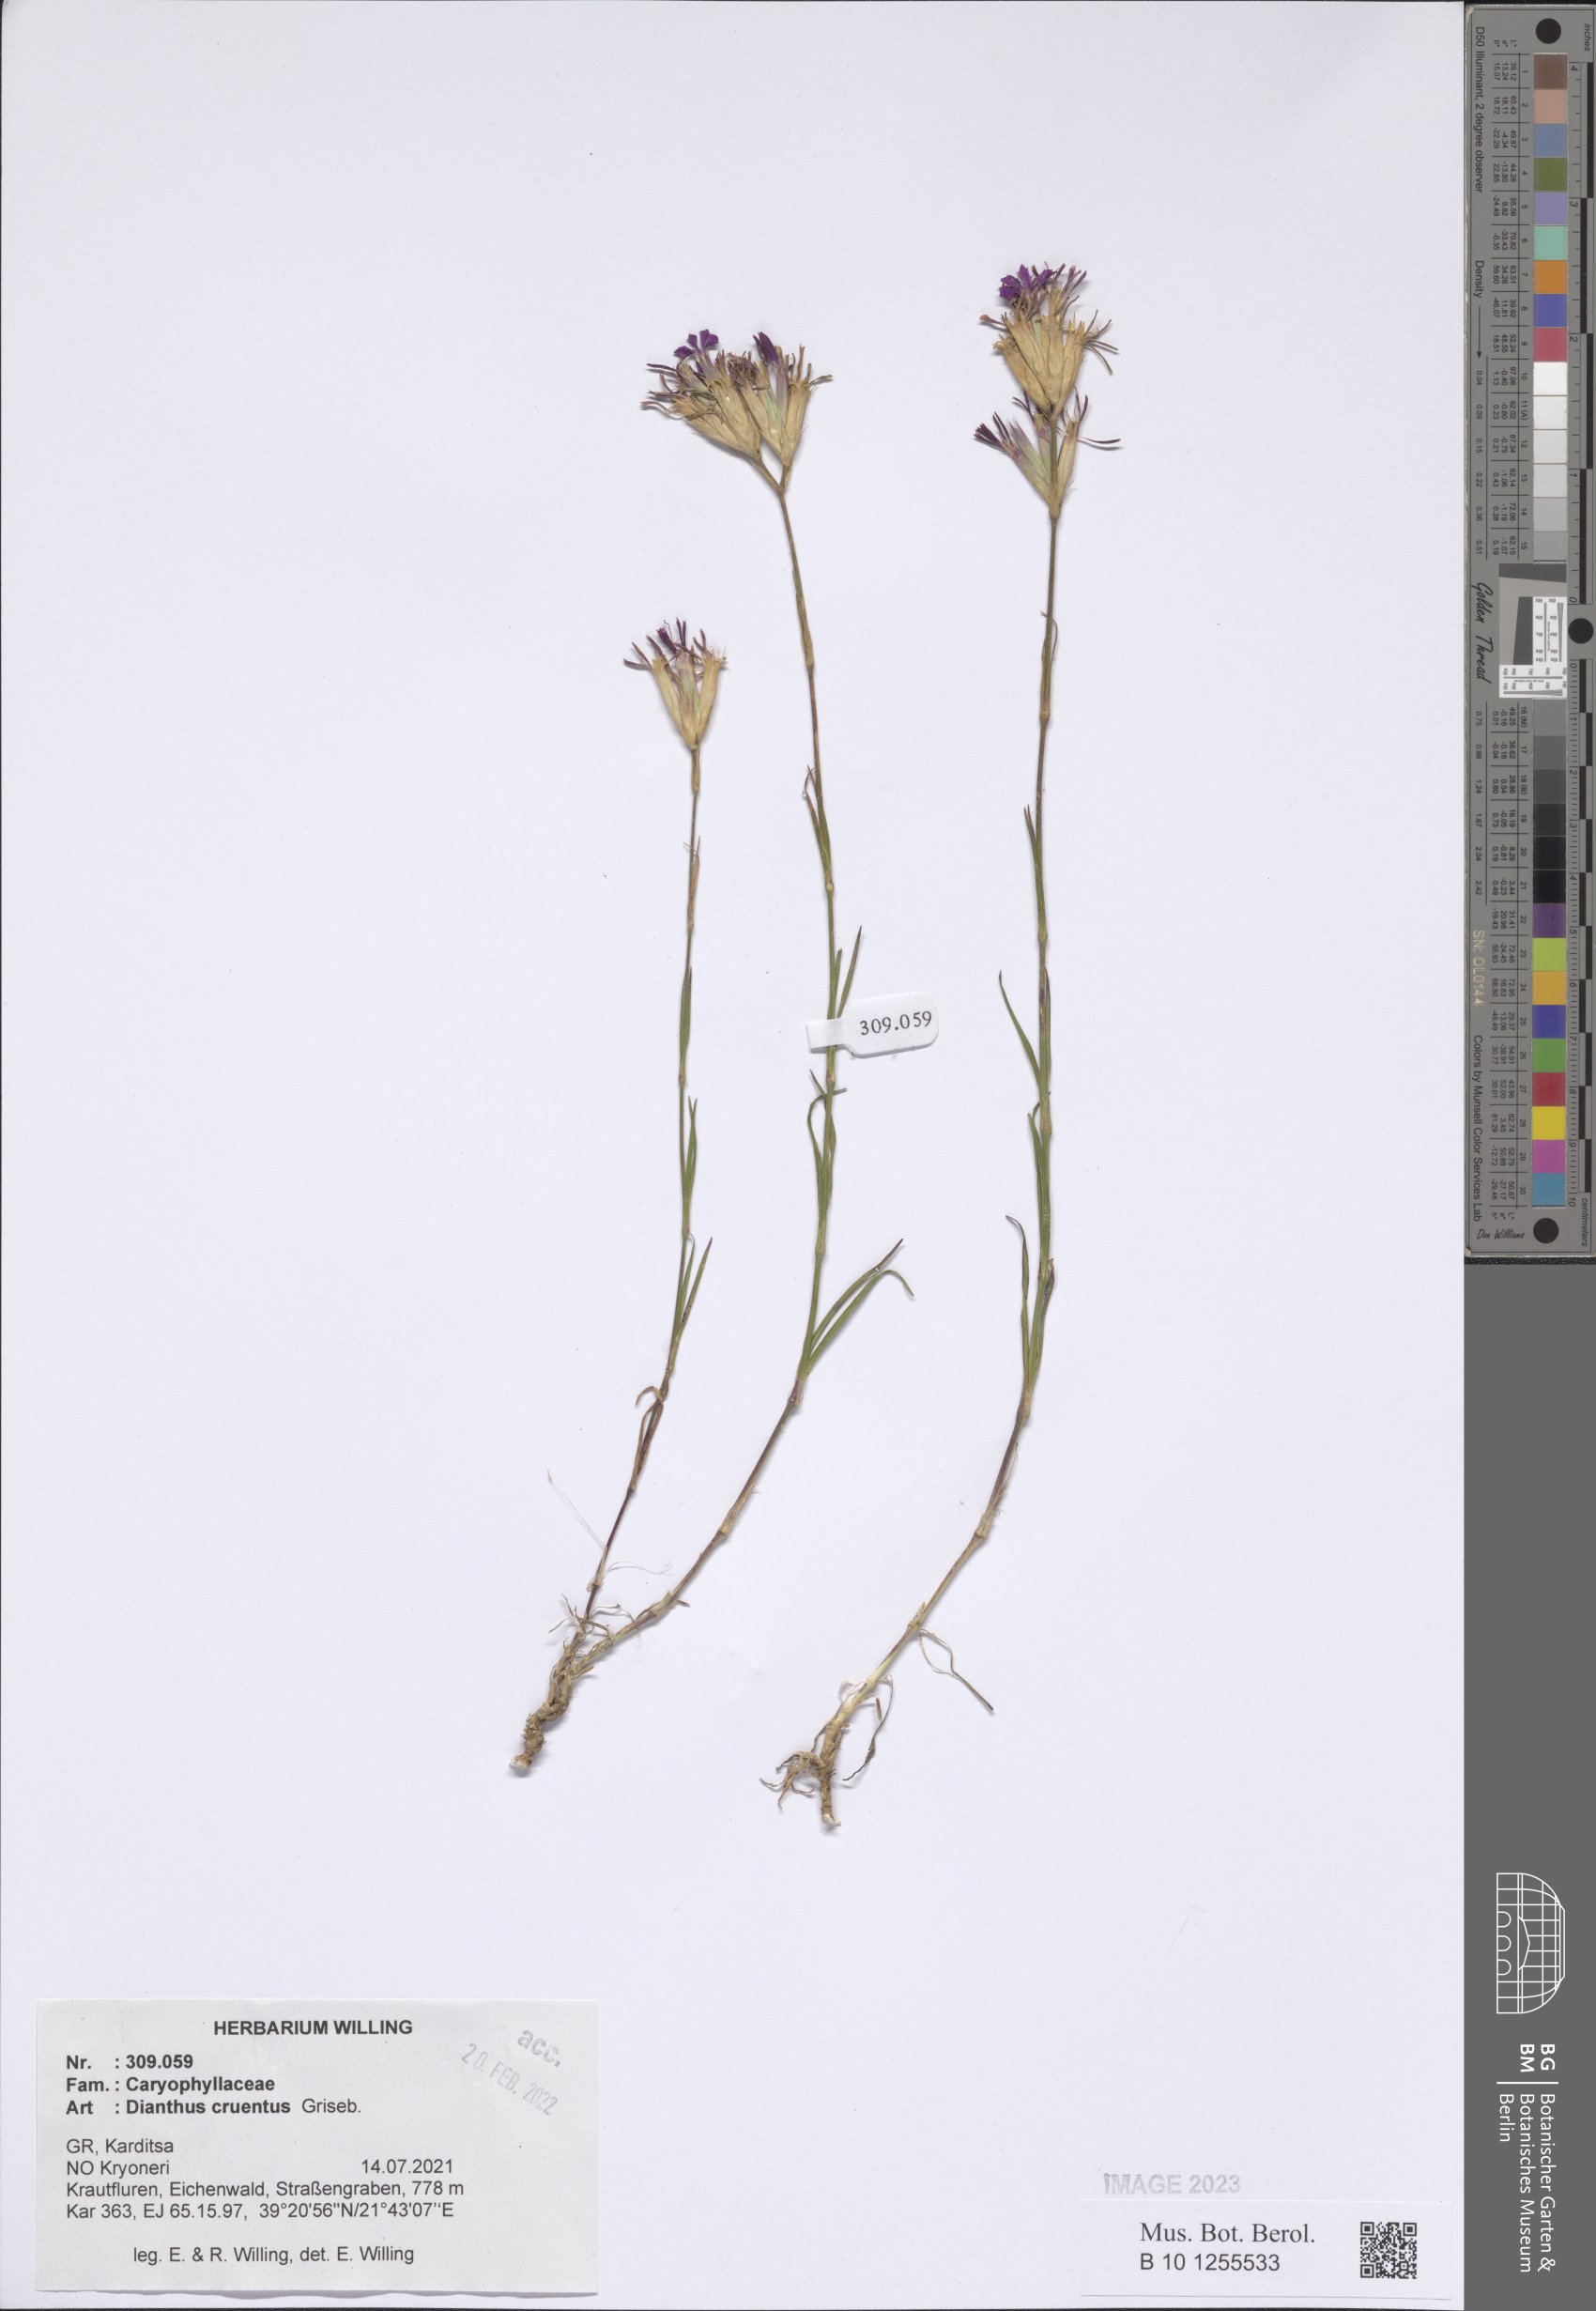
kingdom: Plantae
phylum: Tracheophyta
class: Magnoliopsida
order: Caryophyllales
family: Caryophyllaceae
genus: Dianthus
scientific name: Dianthus cruentus
